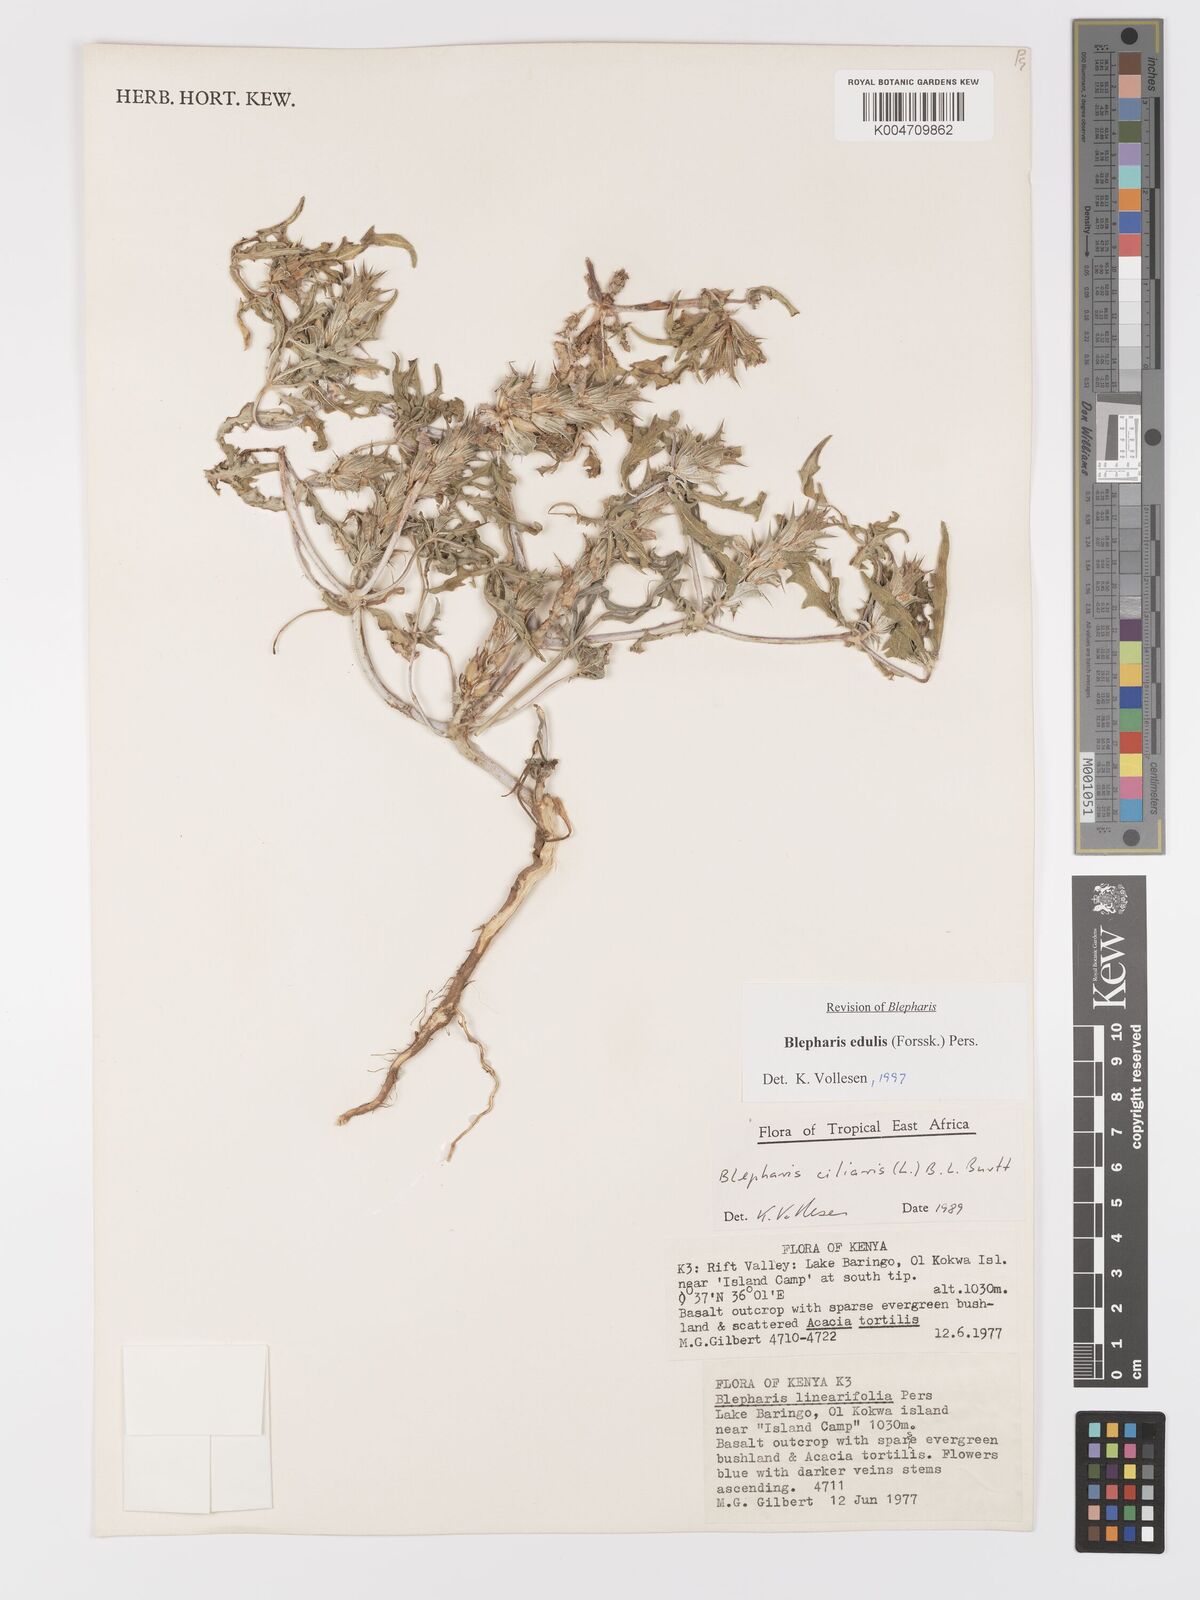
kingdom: Plantae
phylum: Tracheophyta
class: Magnoliopsida
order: Lamiales
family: Acanthaceae
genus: Blepharis
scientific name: Blepharis edulis
